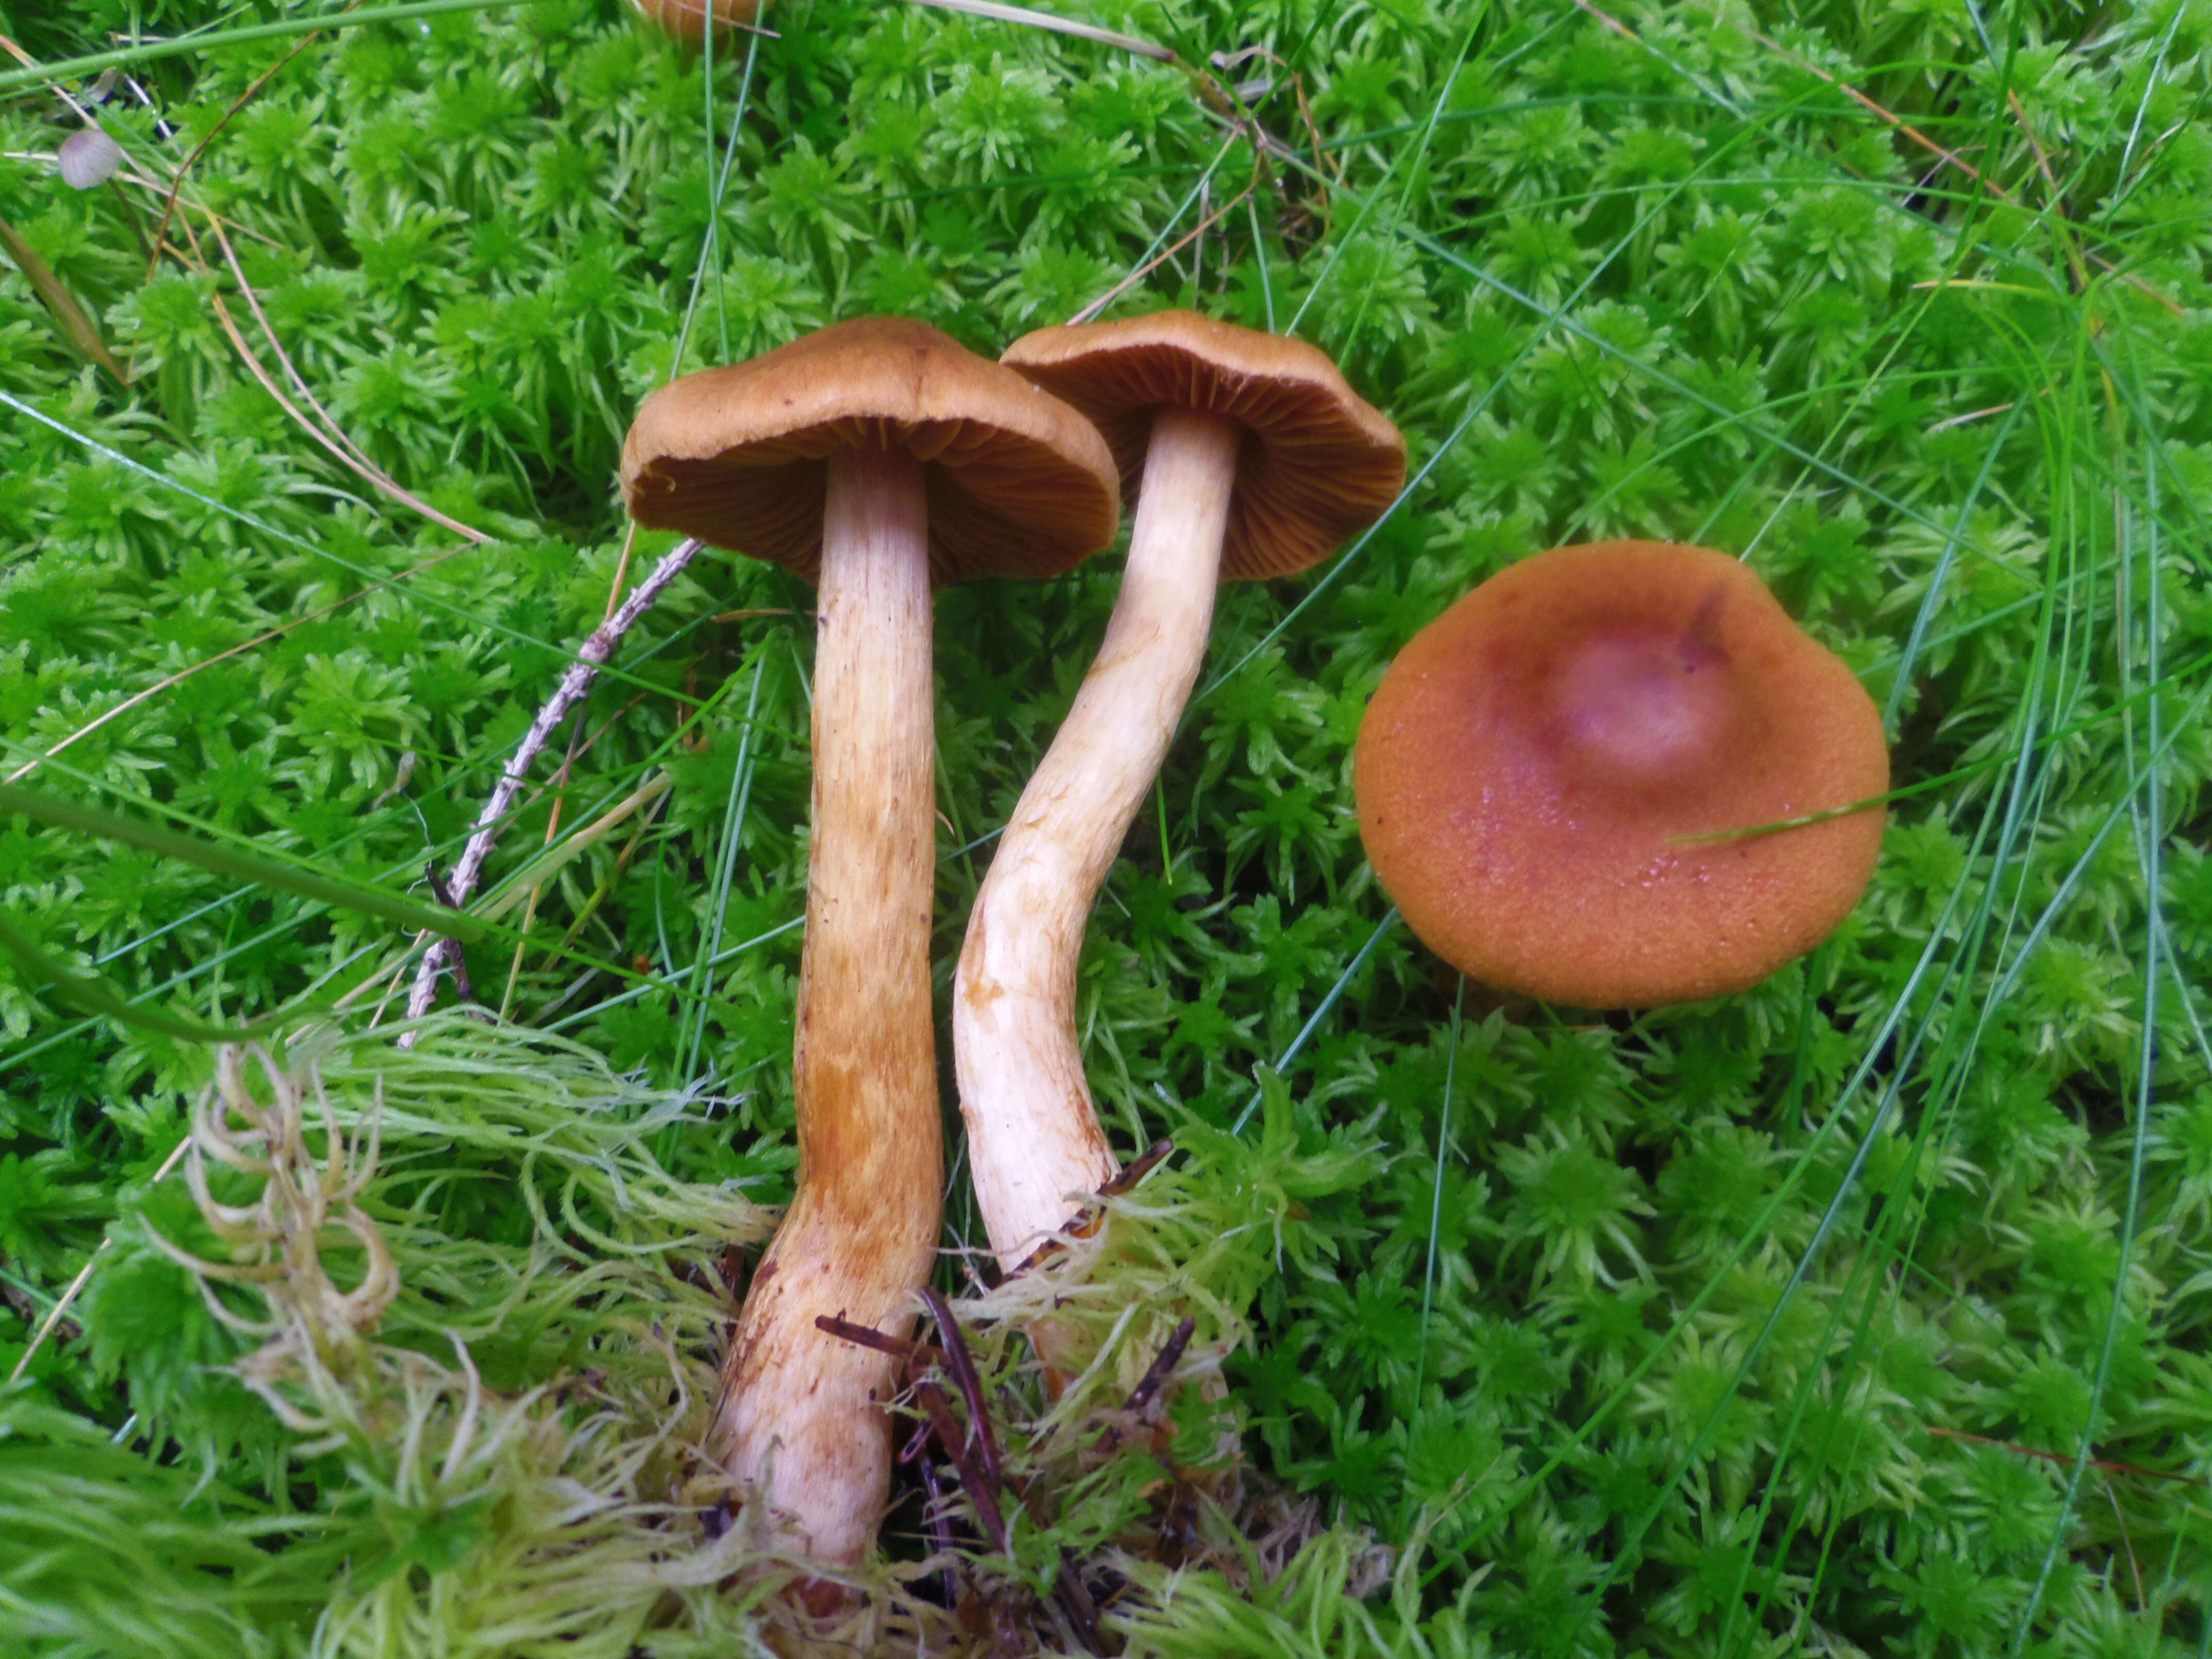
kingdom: Fungi
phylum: Basidiomycota
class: Agaricomycetes
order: Agaricales
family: Cortinariaceae
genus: Cortinarius
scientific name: Cortinarius rubellus
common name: Deadly webcap
